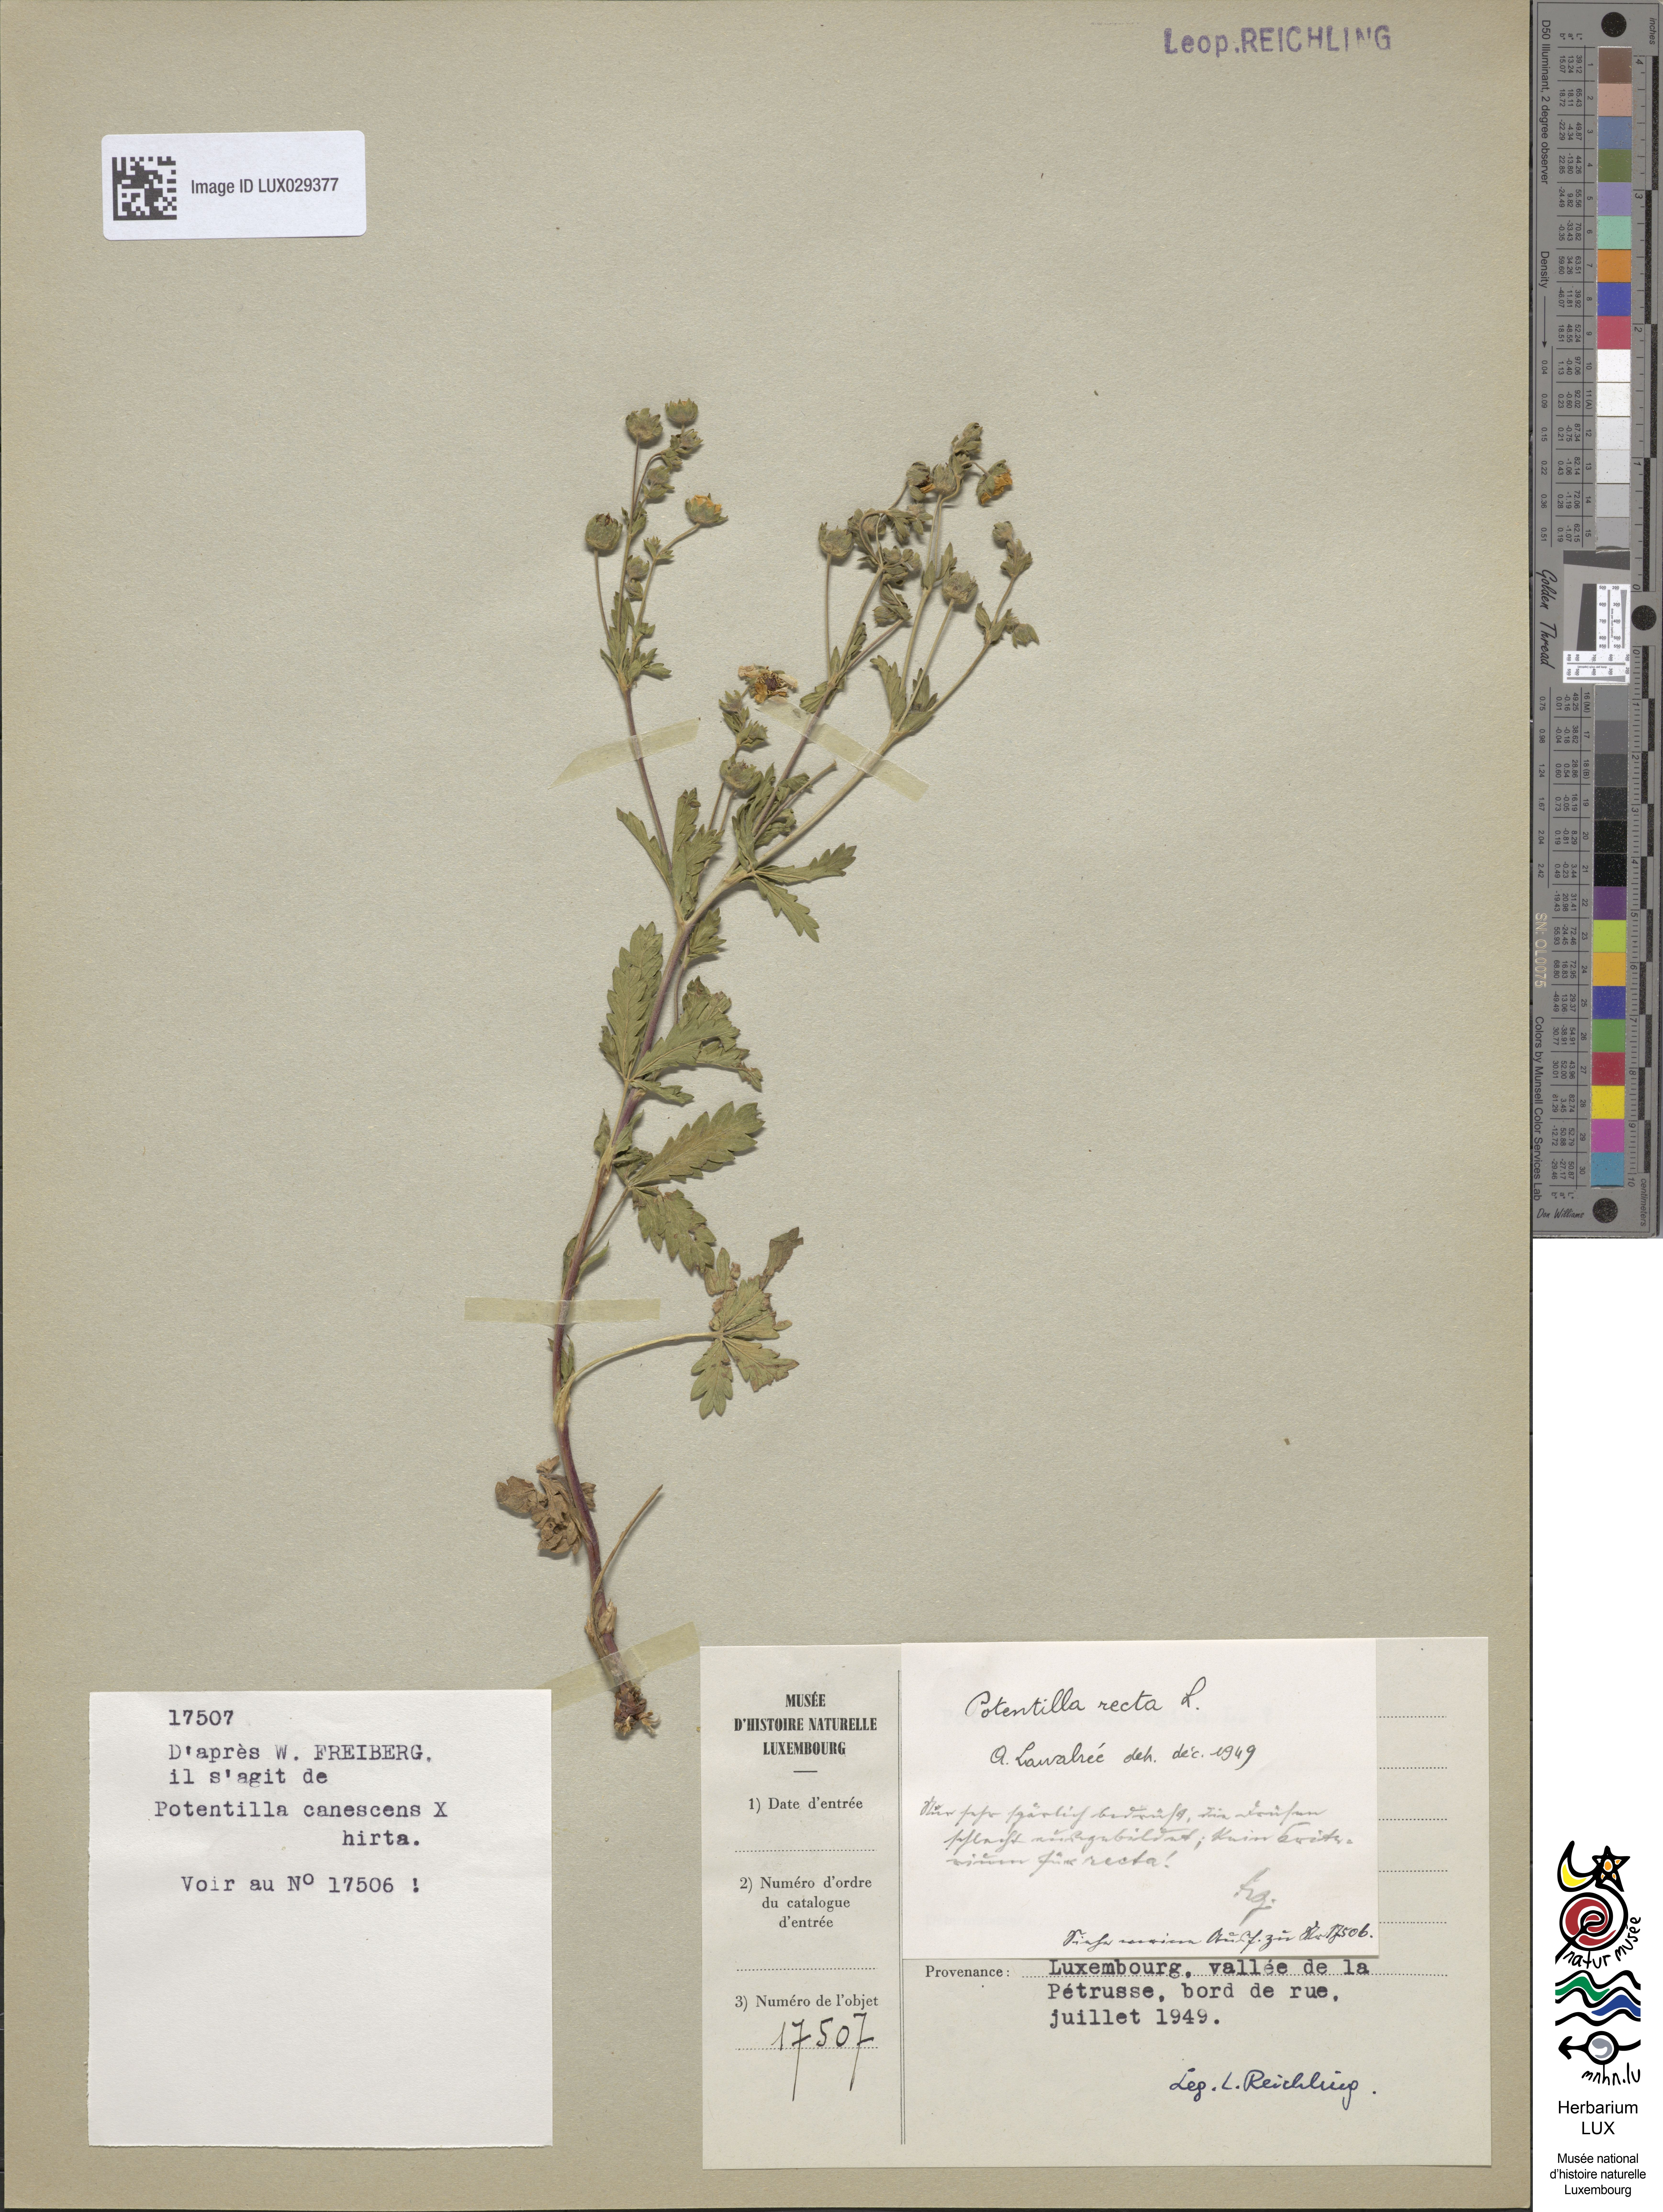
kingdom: Plantae
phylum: Tracheophyta
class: Magnoliopsida
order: Rosales
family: Rosaceae
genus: Potentilla
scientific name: Potentilla recta
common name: Sulphur cinquefoil
